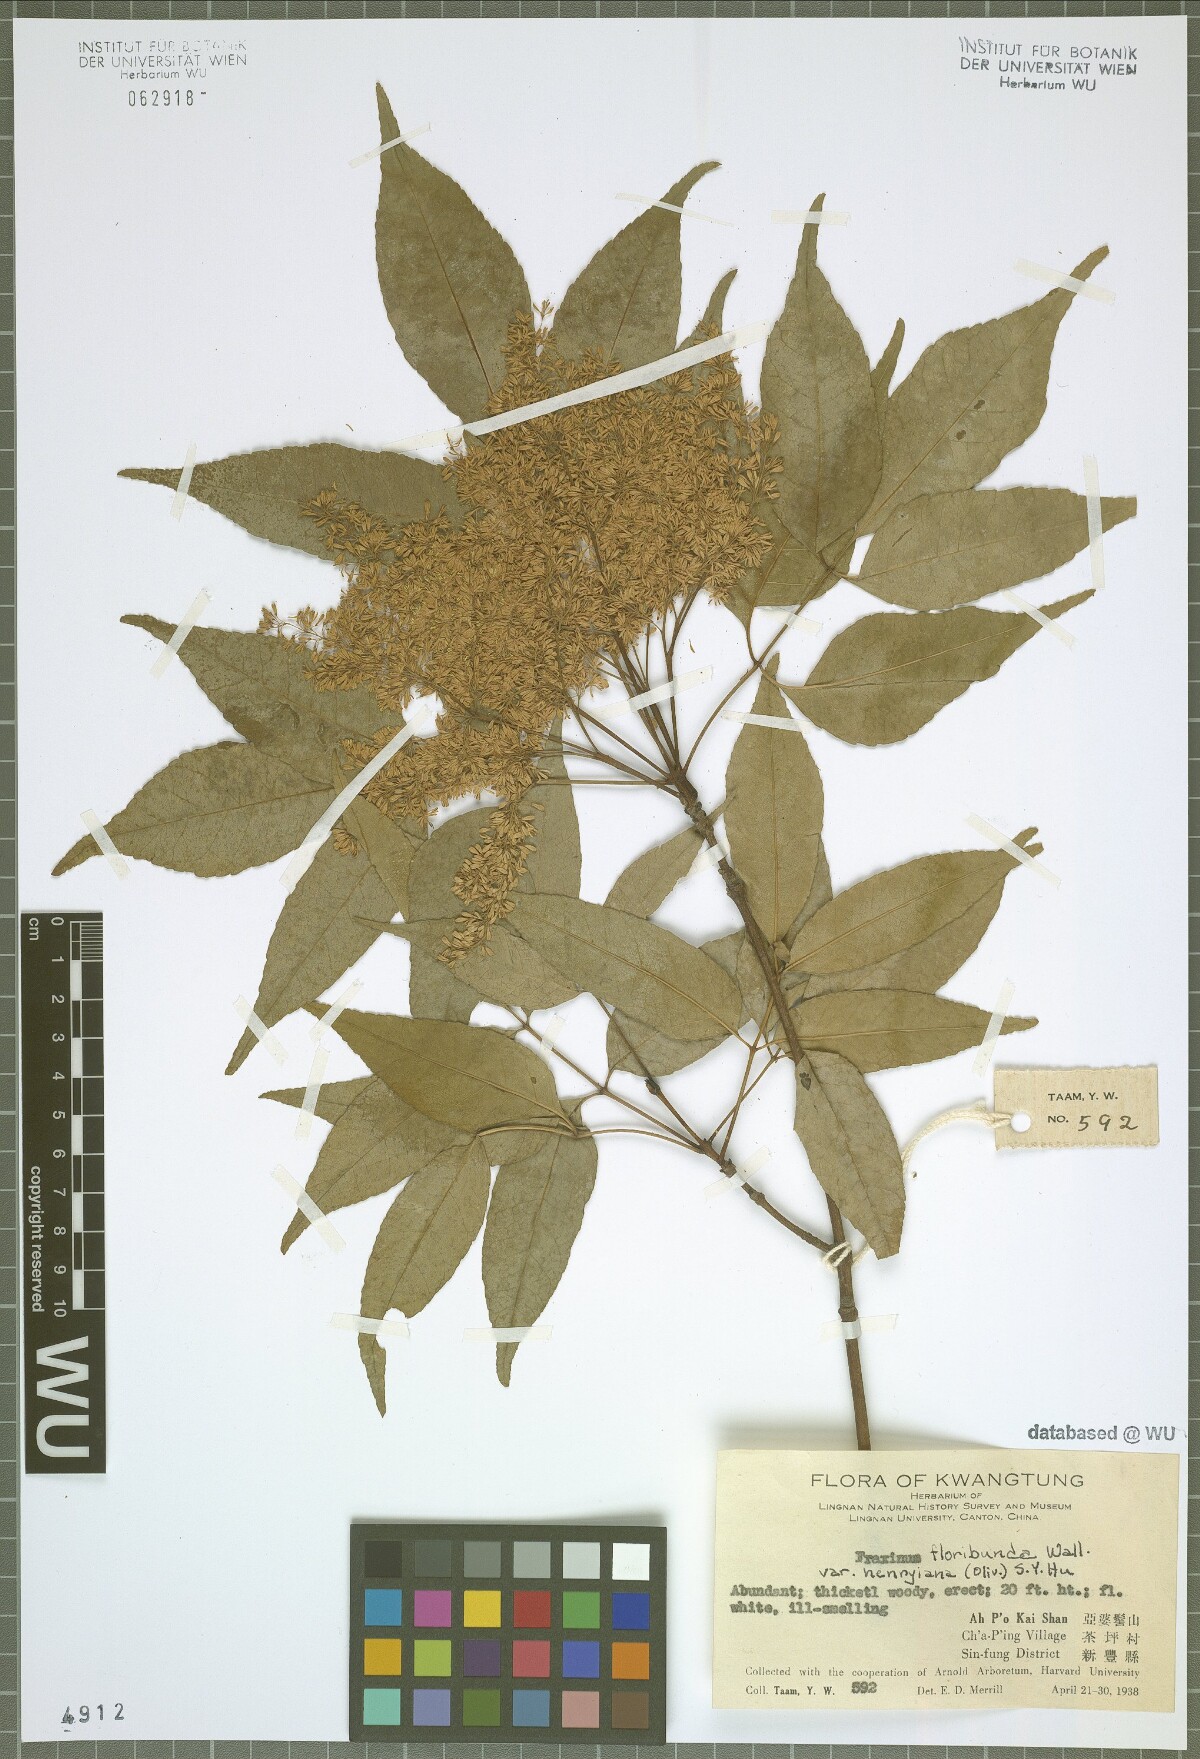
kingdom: Plantae
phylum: Tracheophyta
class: Magnoliopsida
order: Lamiales
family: Oleaceae
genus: Fraxinus
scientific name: Fraxinus floribunda
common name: East indian ash
